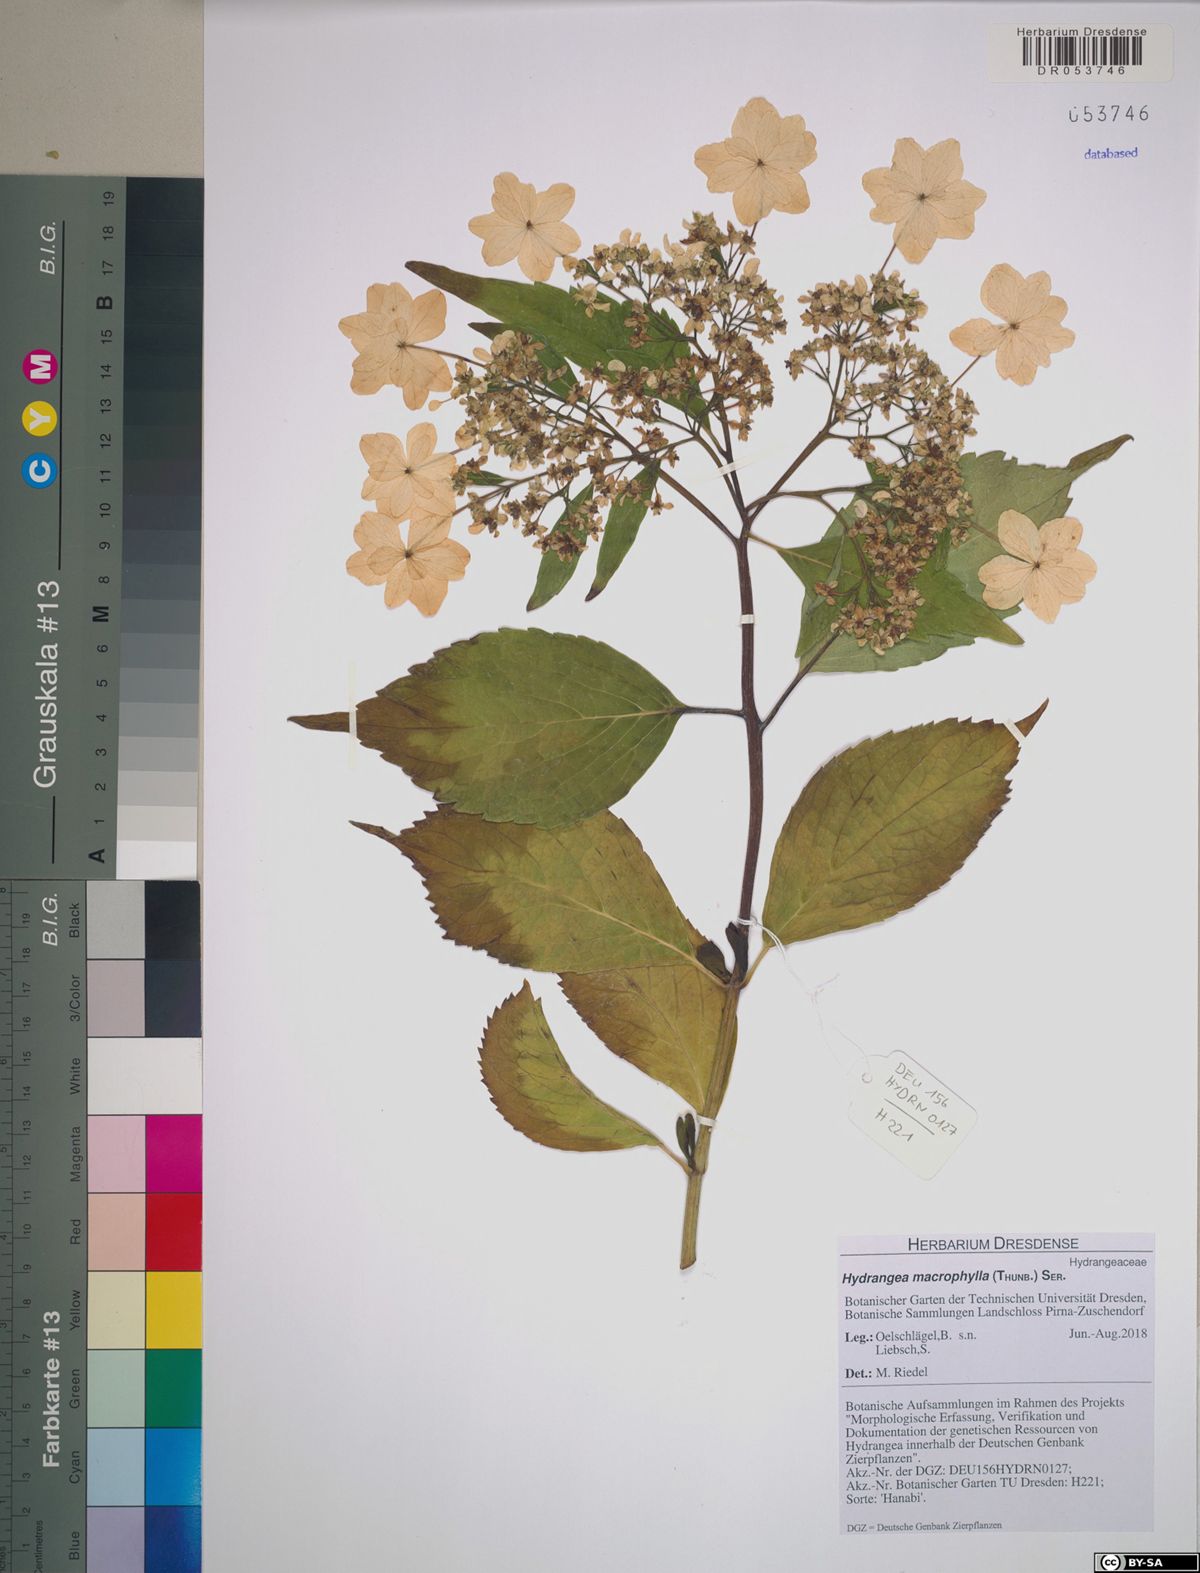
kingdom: Plantae
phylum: Tracheophyta
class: Magnoliopsida
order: Cornales
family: Hydrangeaceae
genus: Hydrangea
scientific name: Hydrangea macrophylla
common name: Hydrangea
